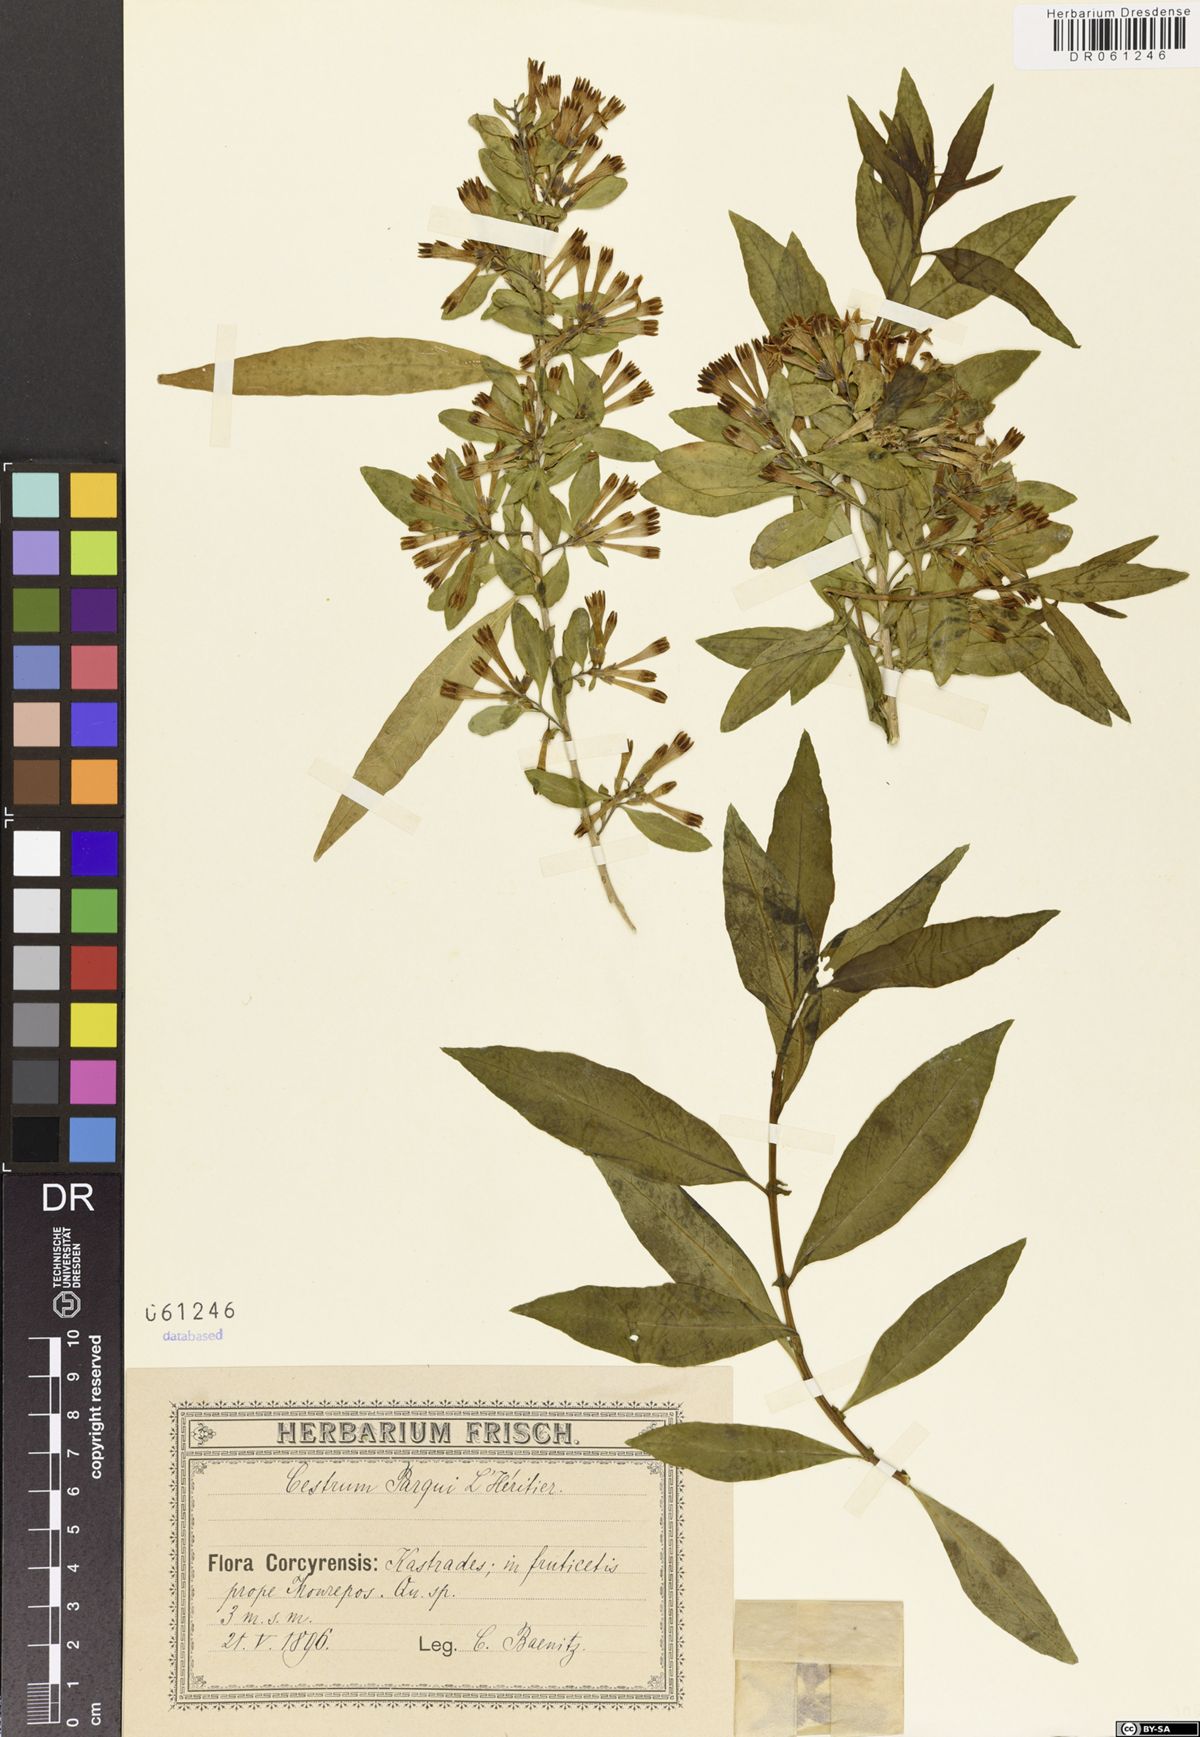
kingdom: Plantae
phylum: Tracheophyta
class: Magnoliopsida
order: Solanales
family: Solanaceae
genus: Cestrum
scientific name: Cestrum thyrsoideum
